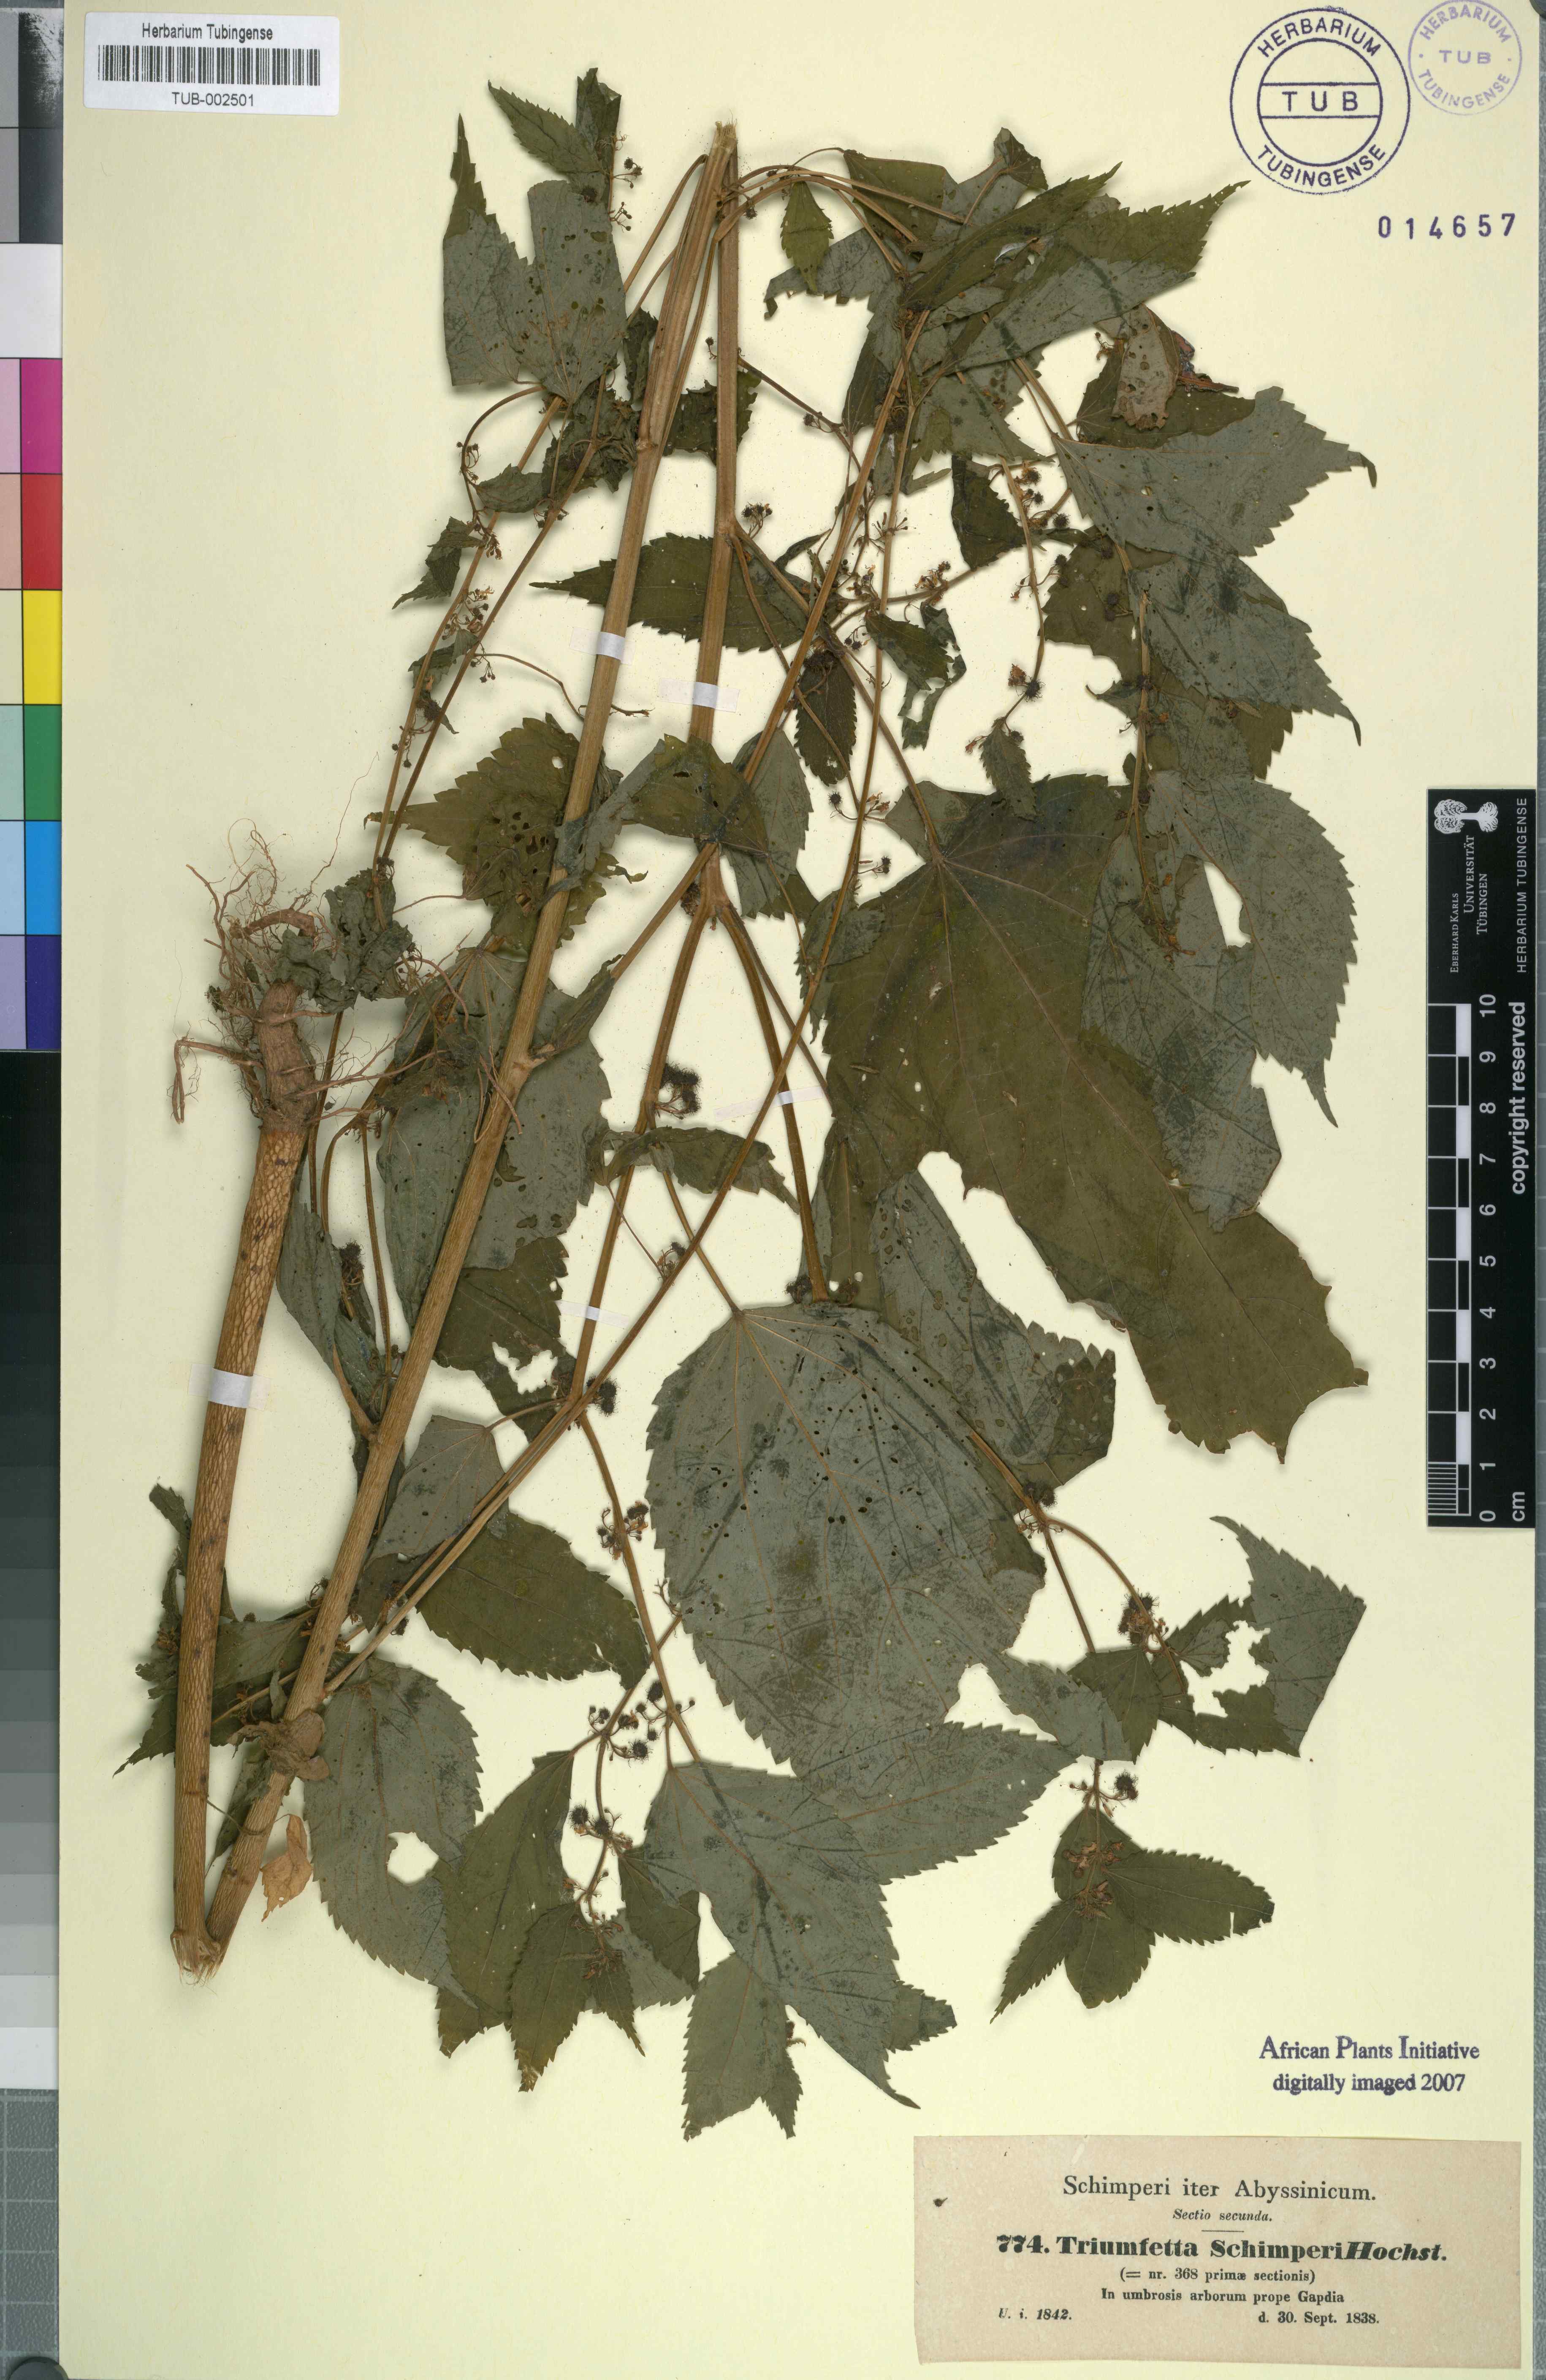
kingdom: Plantae
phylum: Tracheophyta
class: Magnoliopsida
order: Malvales
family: Malvaceae
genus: Triumfetta
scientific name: Triumfetta annua
